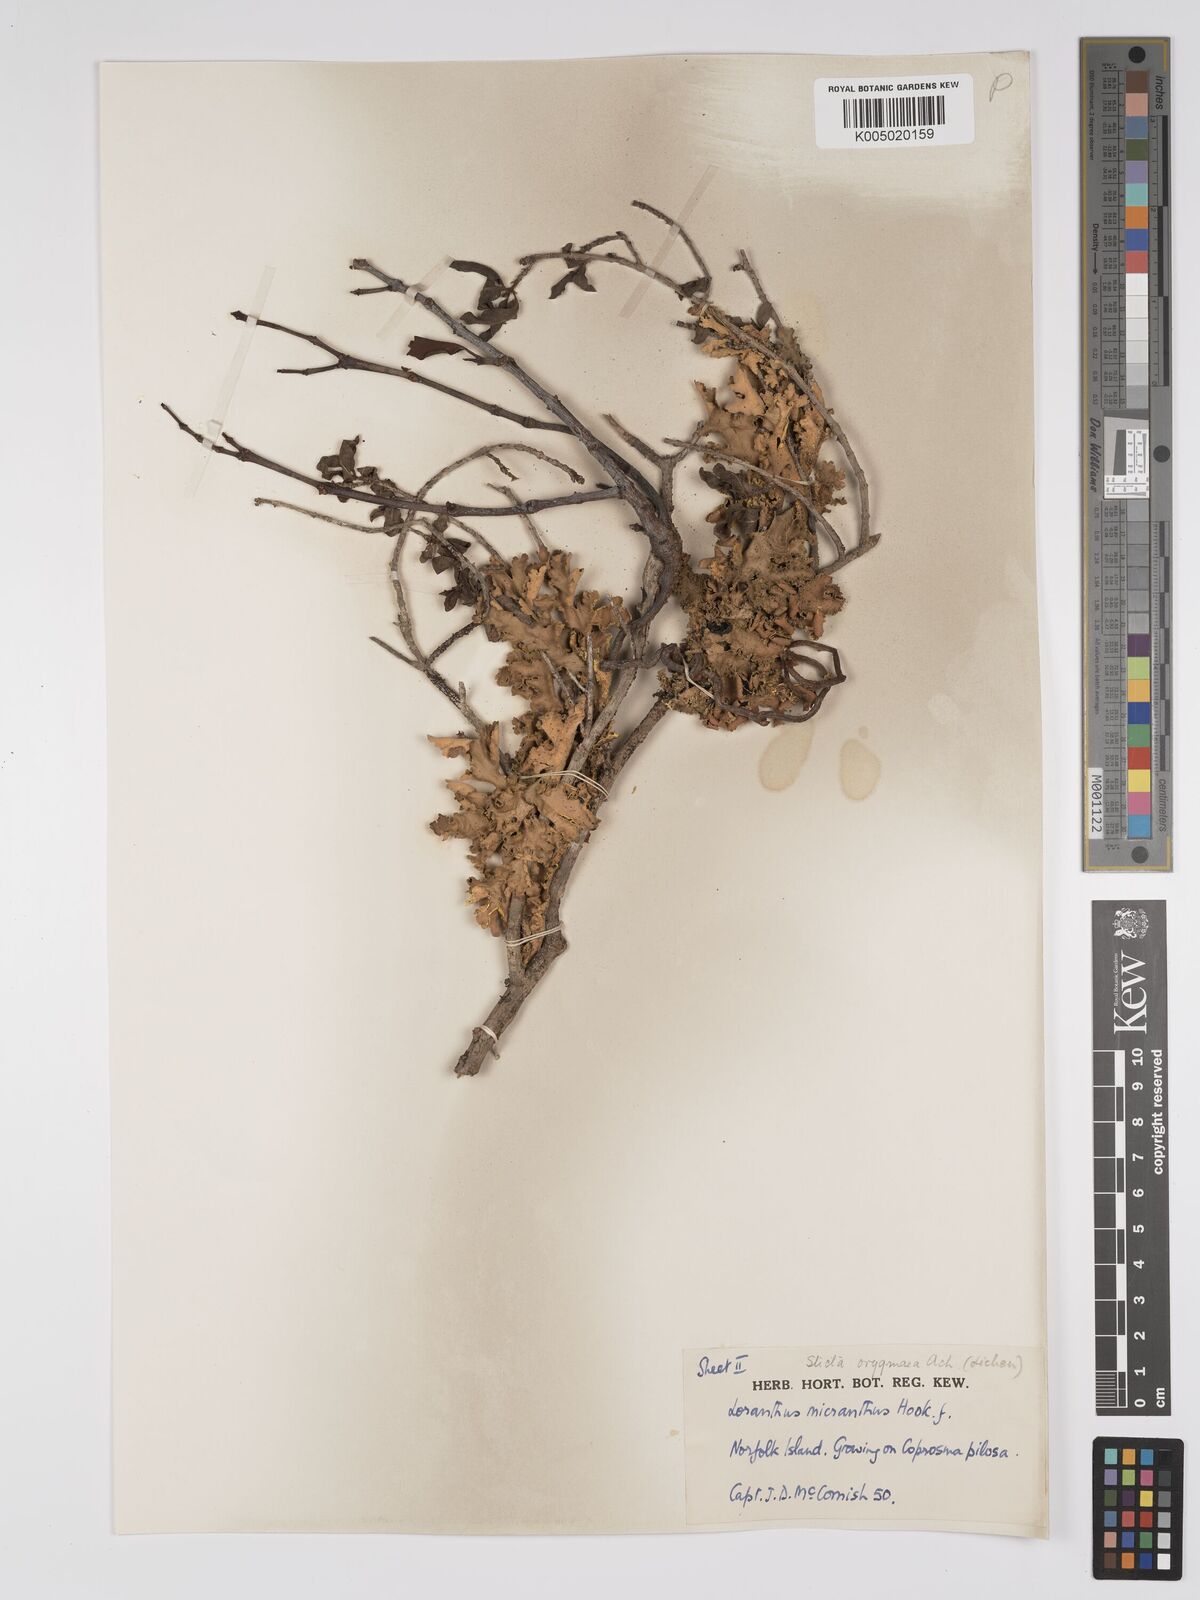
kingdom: Plantae
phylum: Tracheophyta
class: Magnoliopsida
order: Santalales
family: Loranthaceae
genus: Ileostylus
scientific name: Ileostylus micranthus
